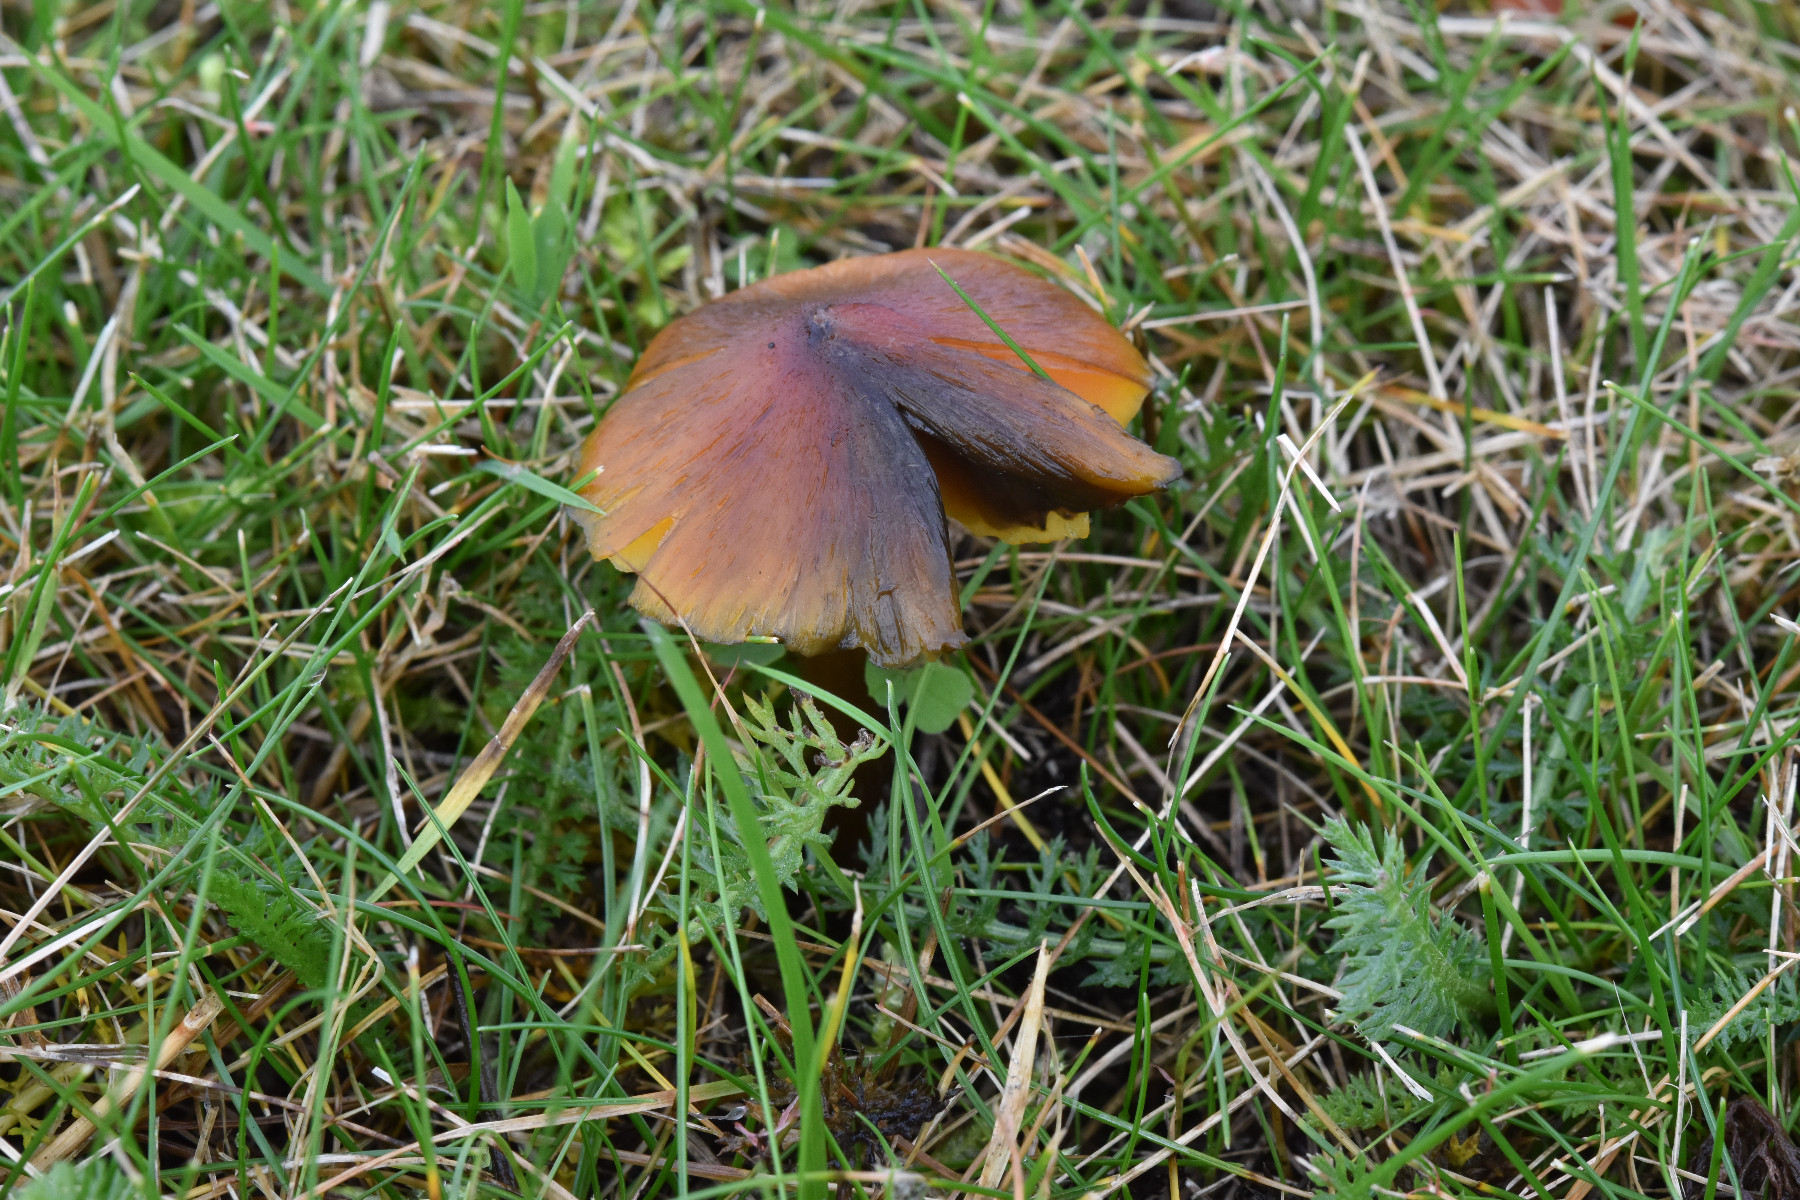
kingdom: Fungi
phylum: Basidiomycota
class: Agaricomycetes
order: Agaricales
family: Hygrophoraceae
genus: Hygrocybe
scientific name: Hygrocybe conica
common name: kegle-vokshat
